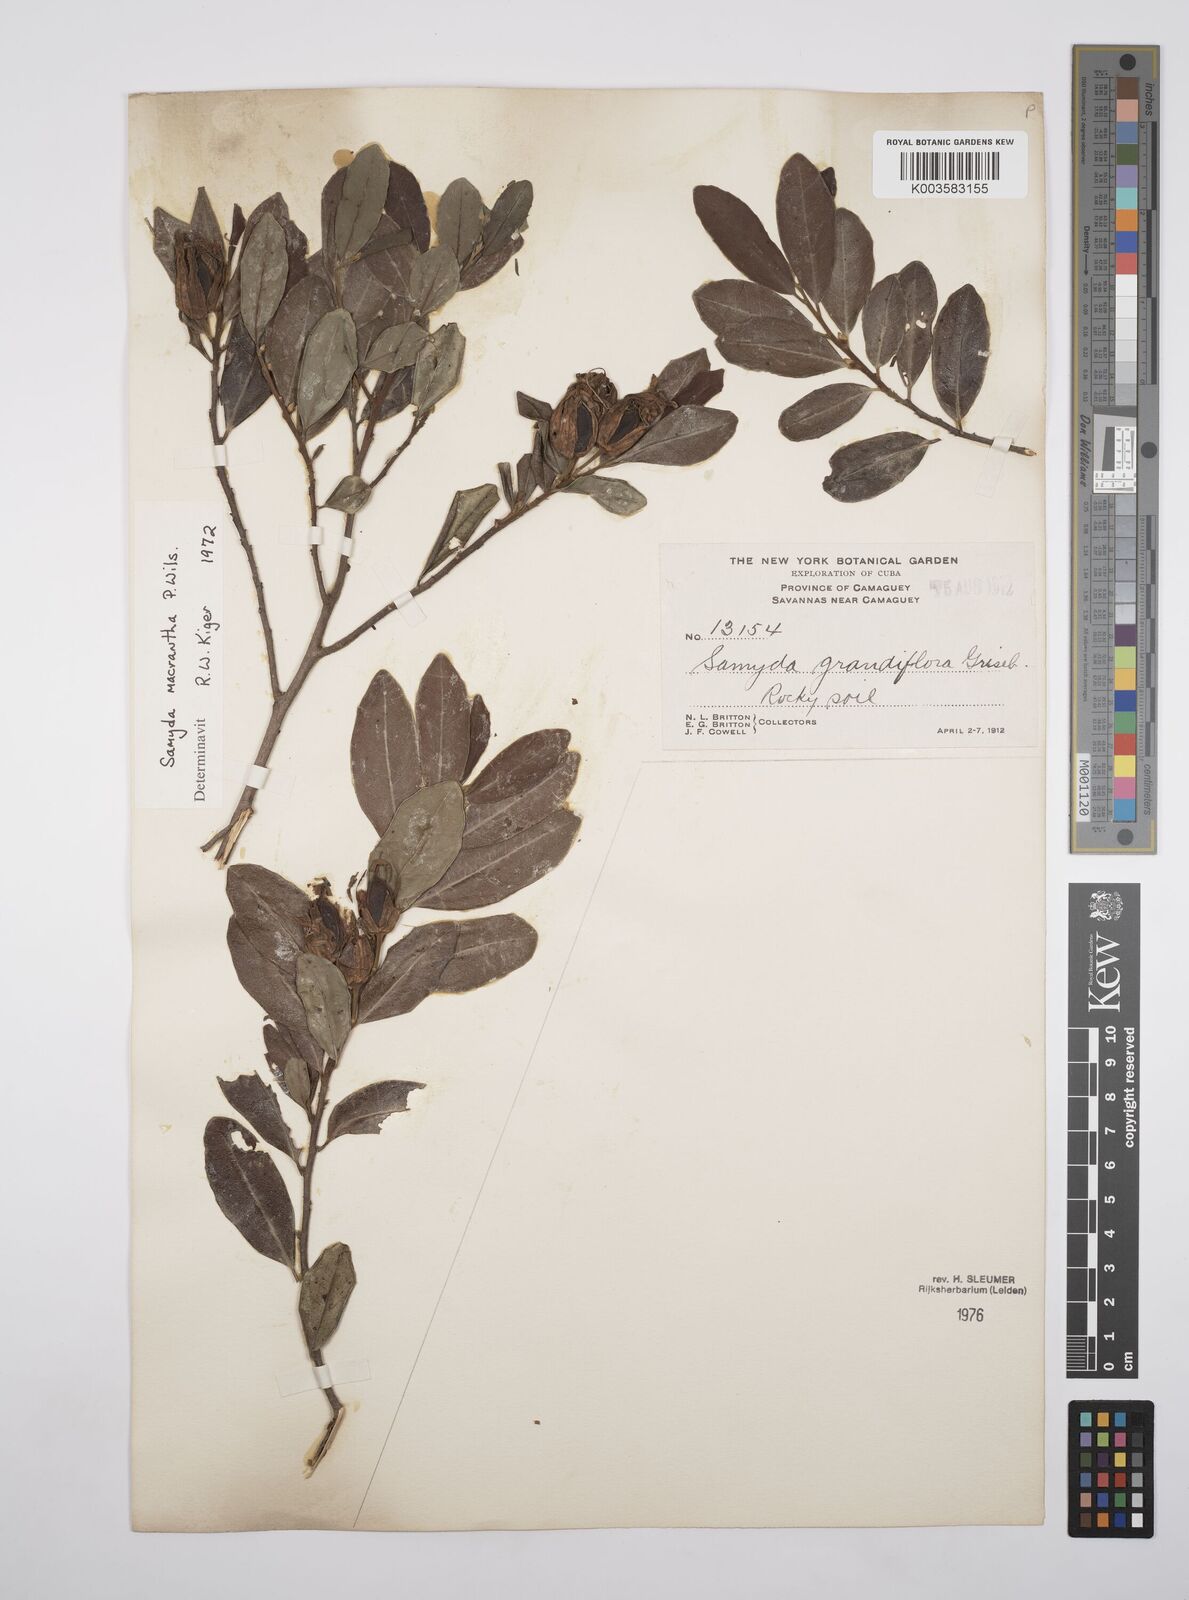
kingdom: Plantae
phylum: Tracheophyta
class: Magnoliopsida
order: Malpighiales
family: Salicaceae
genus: Casearia
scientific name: Casearia dolichanthera
